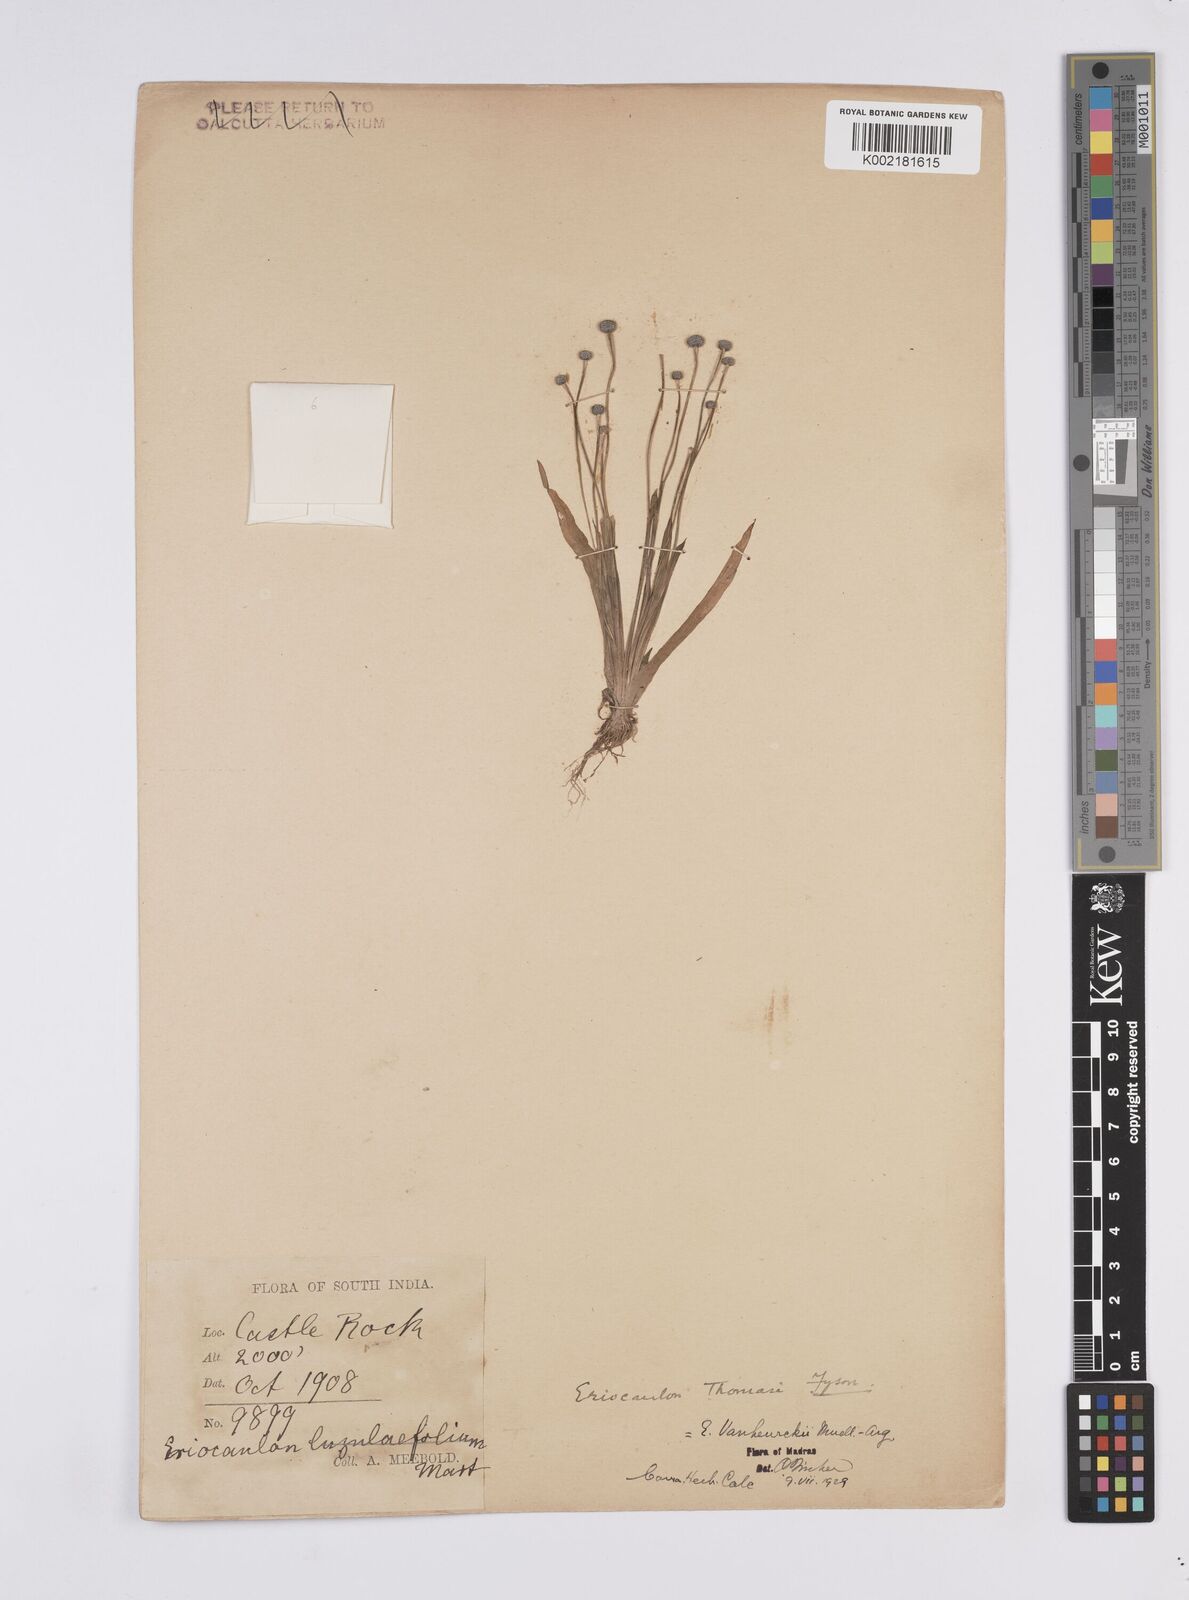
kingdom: Plantae
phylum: Tracheophyta
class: Liliopsida
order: Poales
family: Eriocaulaceae
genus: Eriocaulon
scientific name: Eriocaulon eurypeplon
